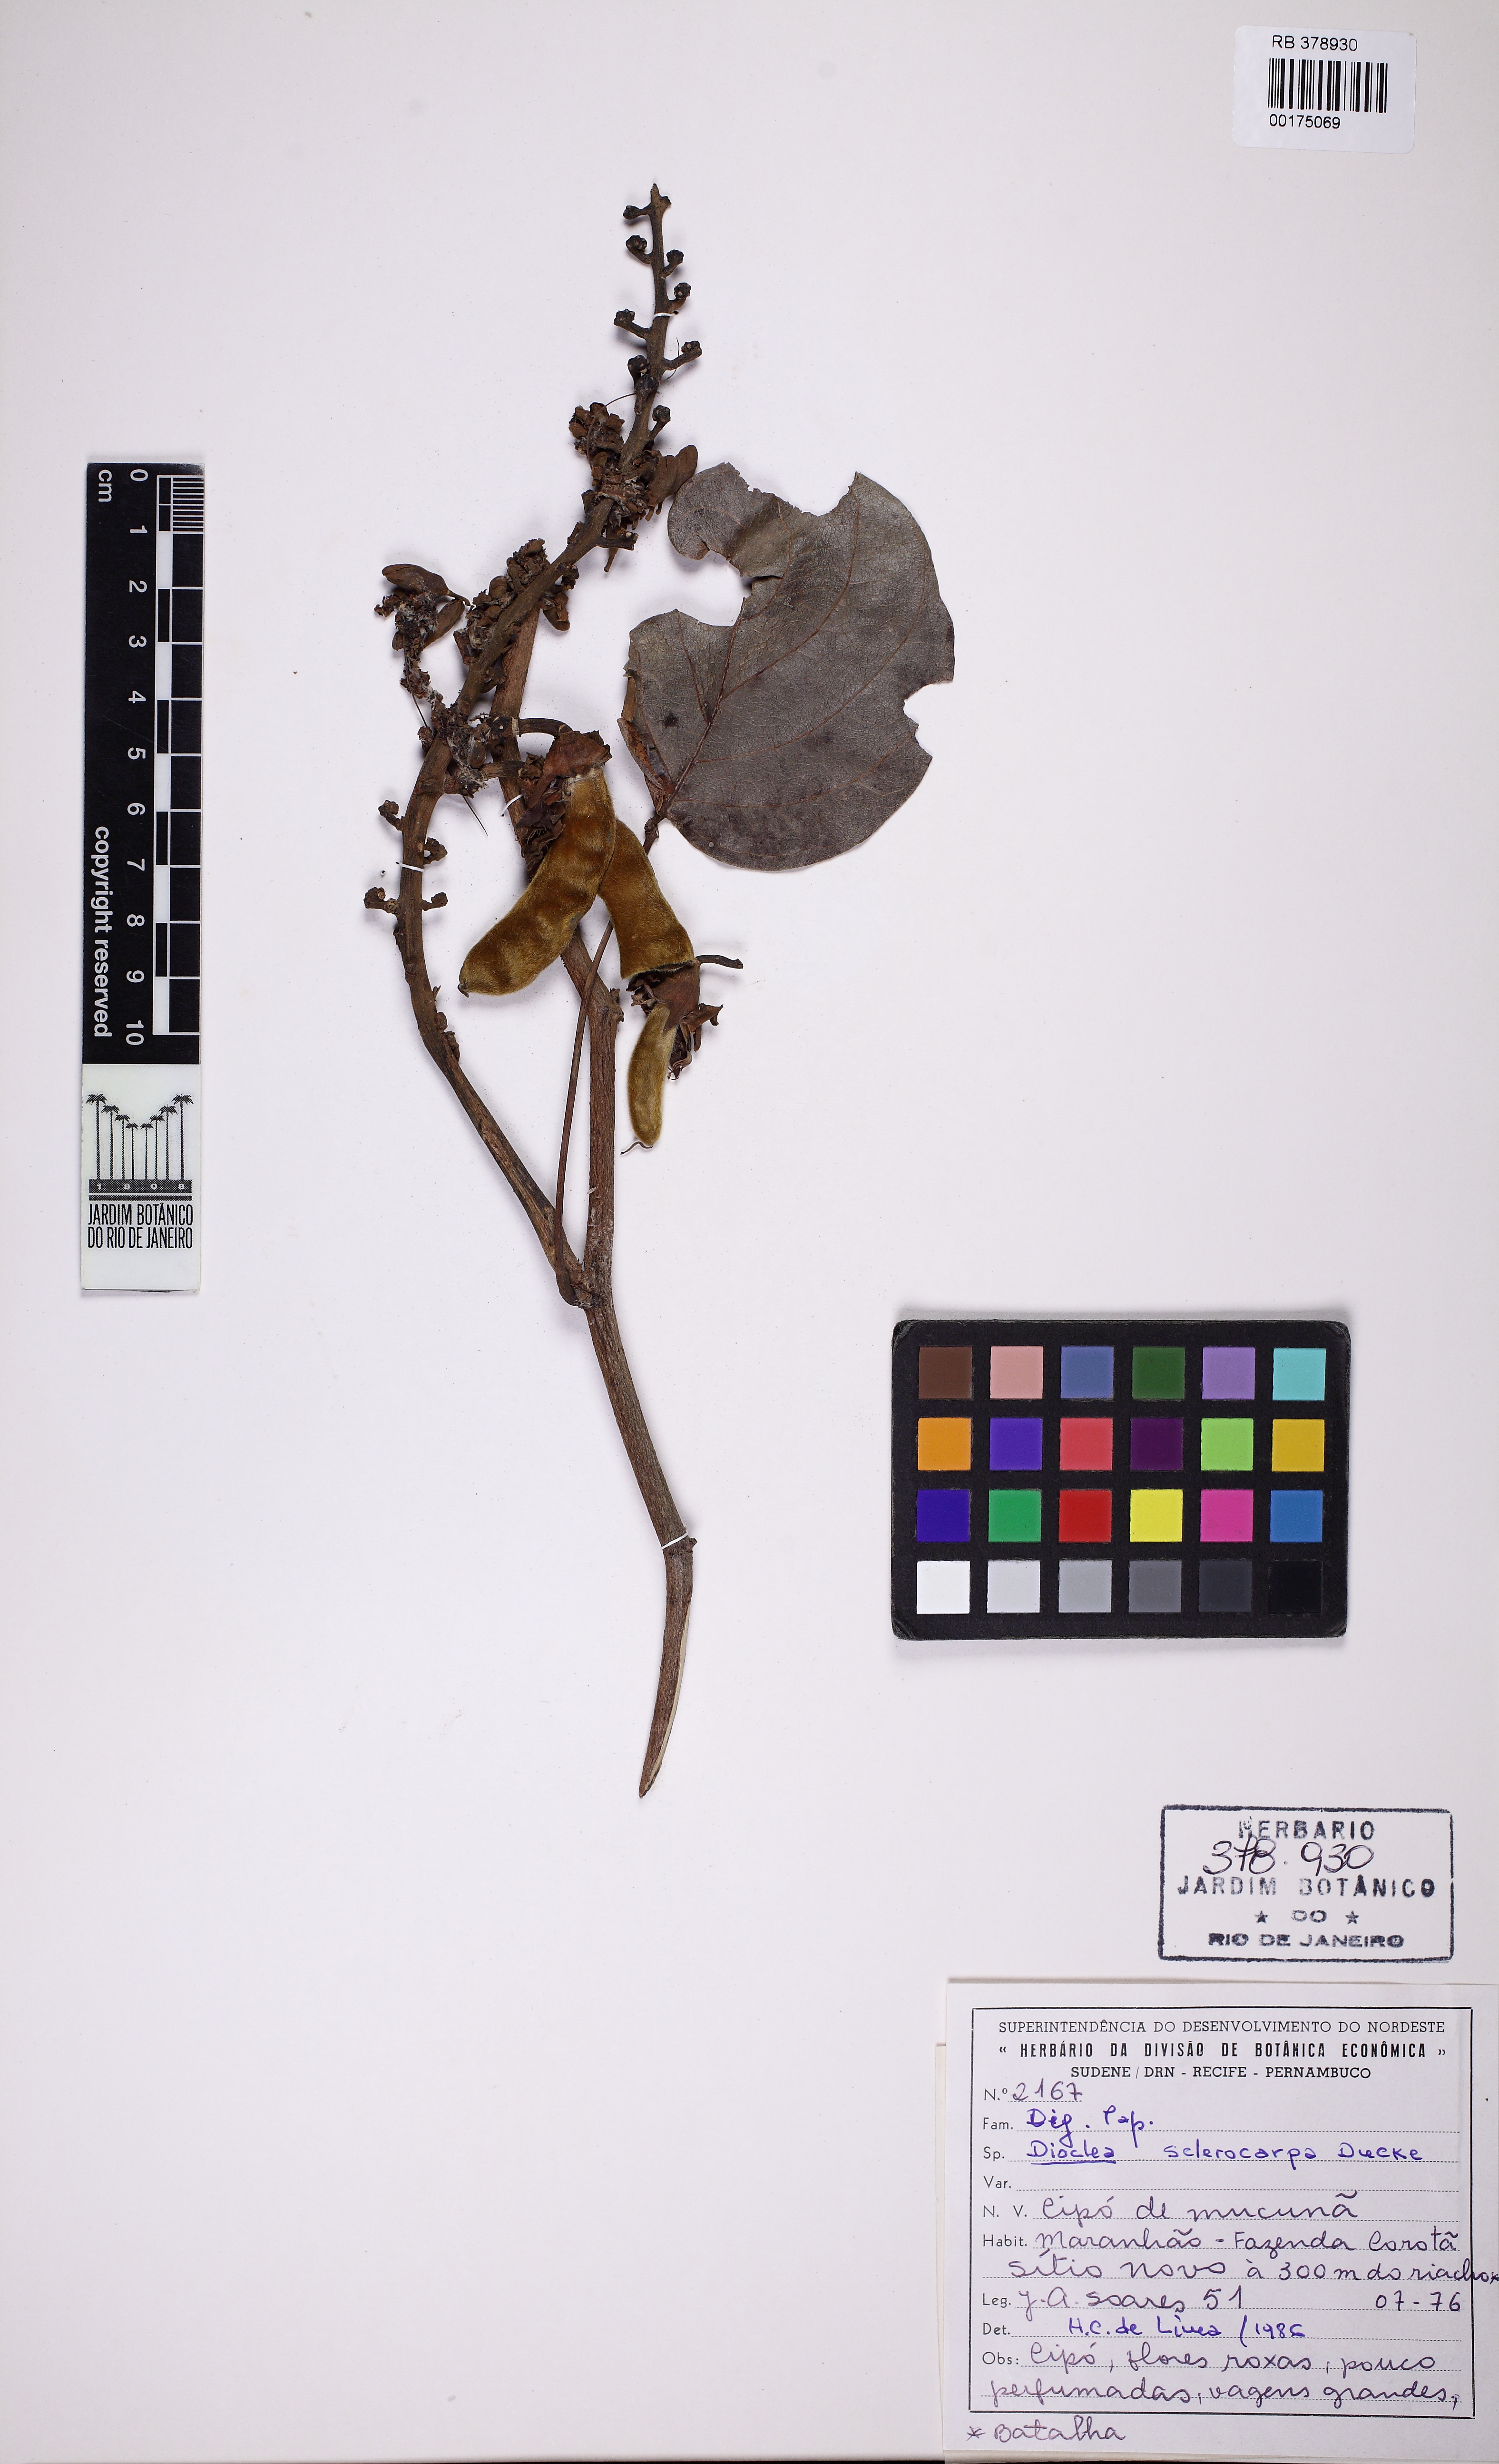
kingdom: Plantae
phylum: Tracheophyta
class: Magnoliopsida
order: Fabales
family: Fabaceae
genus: Macropsychanthus
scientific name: Macropsychanthus sclerocarpus
